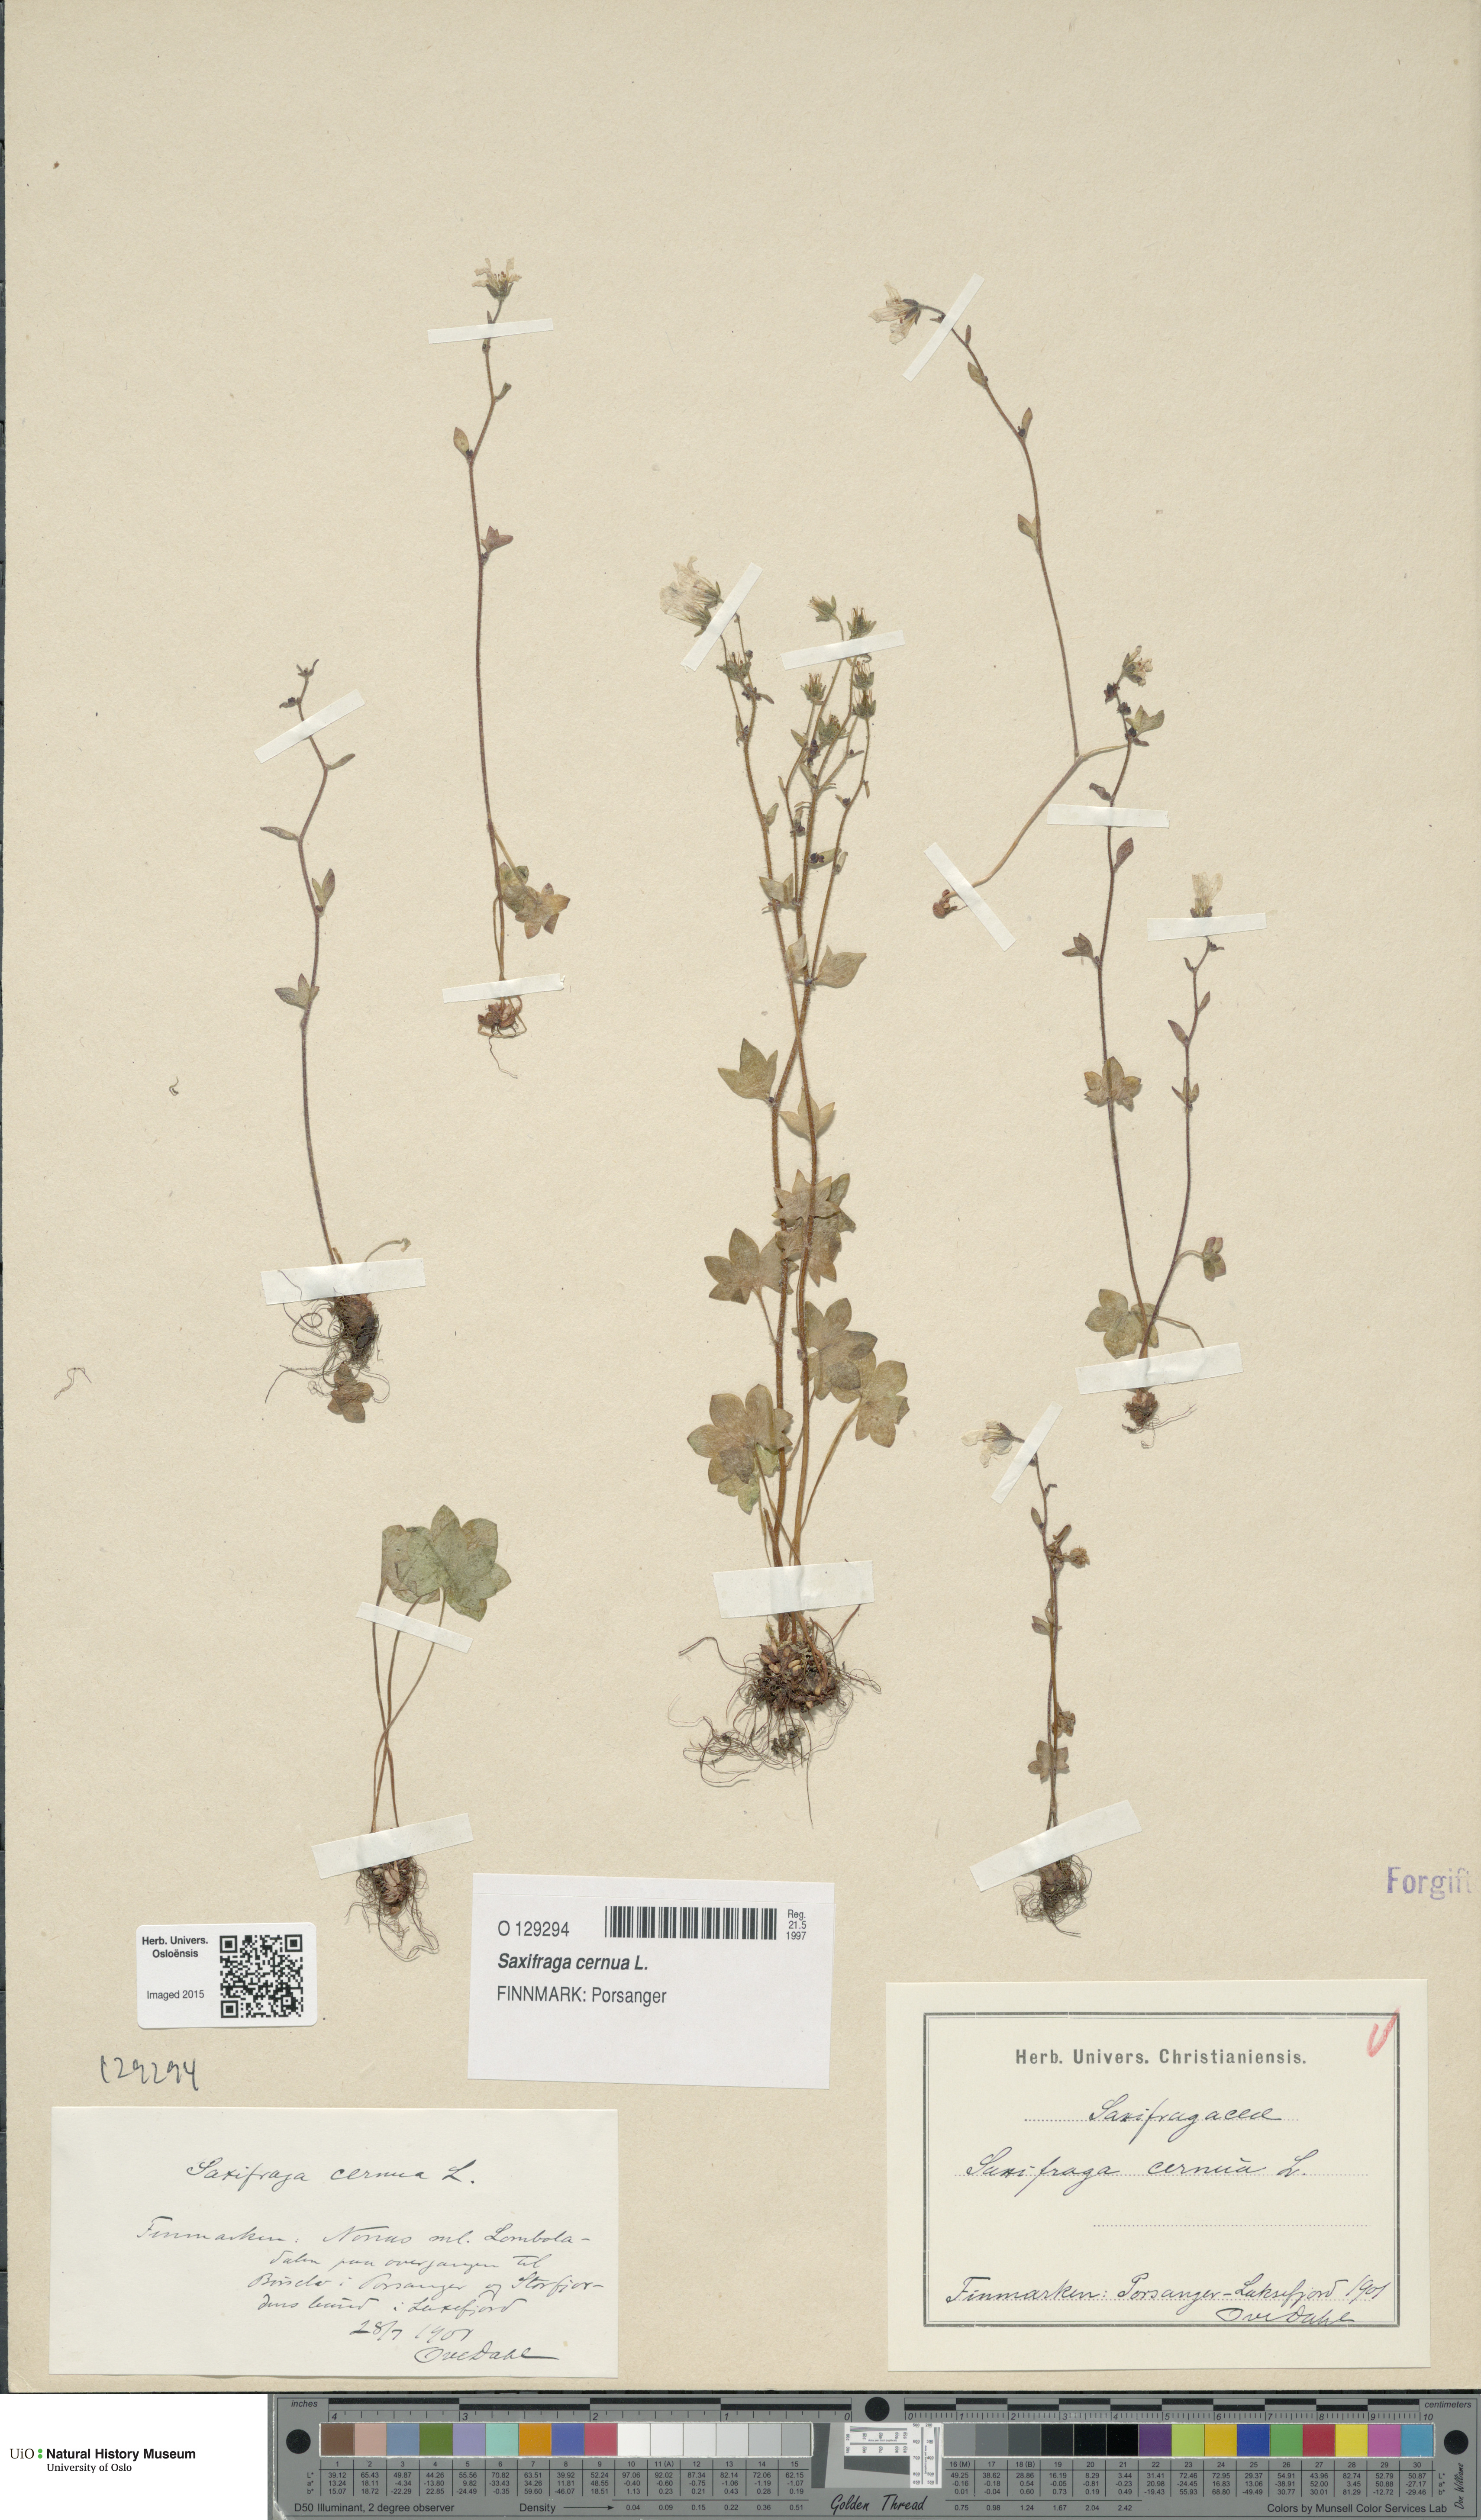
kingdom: Plantae
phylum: Tracheophyta
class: Magnoliopsida
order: Saxifragales
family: Saxifragaceae
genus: Saxifraga
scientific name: Saxifraga cernua
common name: Drooping saxifrage
